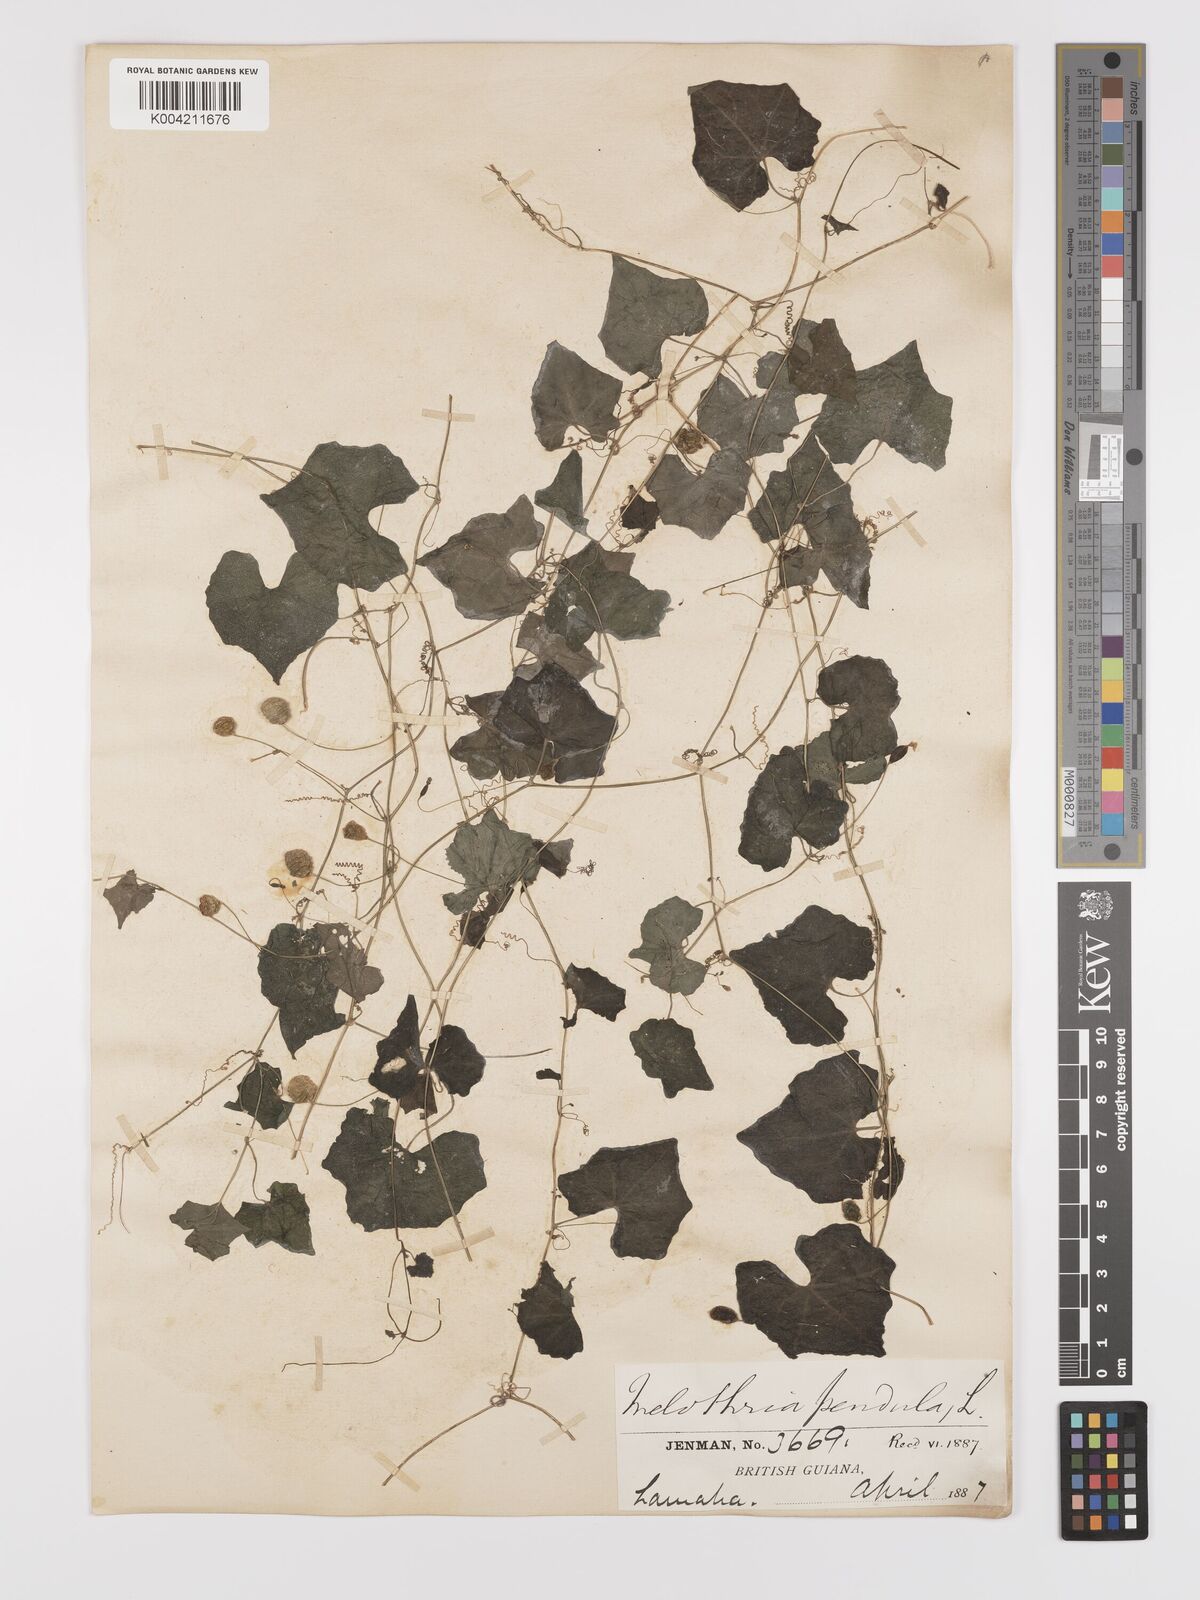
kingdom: Plantae
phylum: Tracheophyta
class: Magnoliopsida
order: Cucurbitales
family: Cucurbitaceae
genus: Melothria
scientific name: Melothria pendula
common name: Creeping-cucumber
